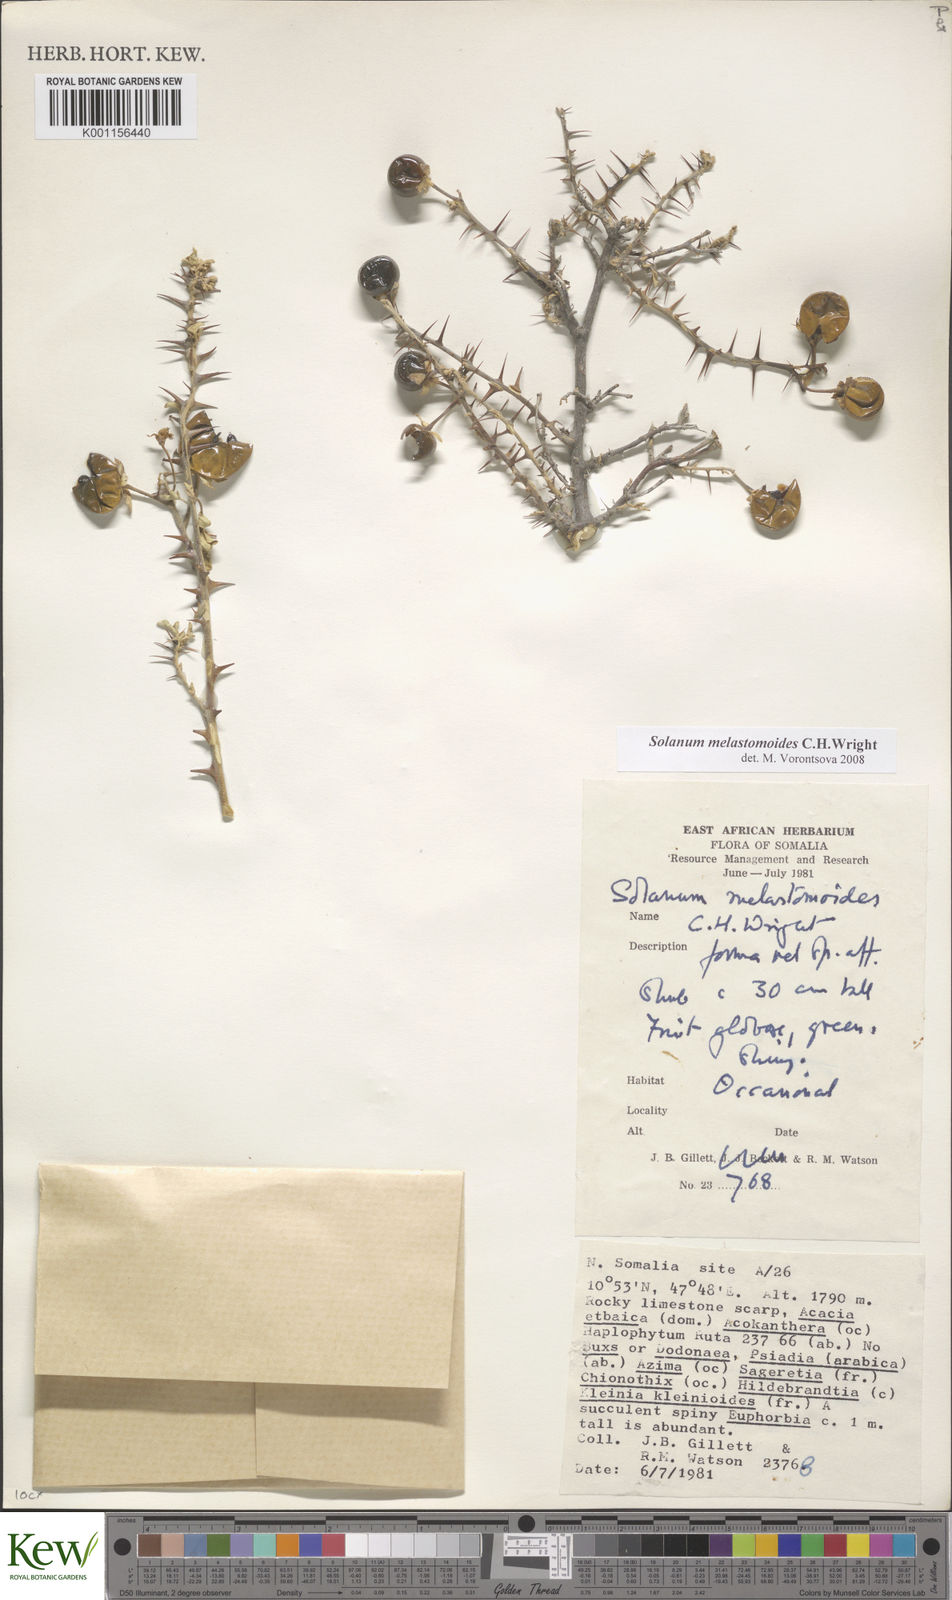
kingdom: Plantae
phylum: Tracheophyta
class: Magnoliopsida
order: Solanales
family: Solanaceae
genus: Solanum
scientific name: Solanum melastomoides
